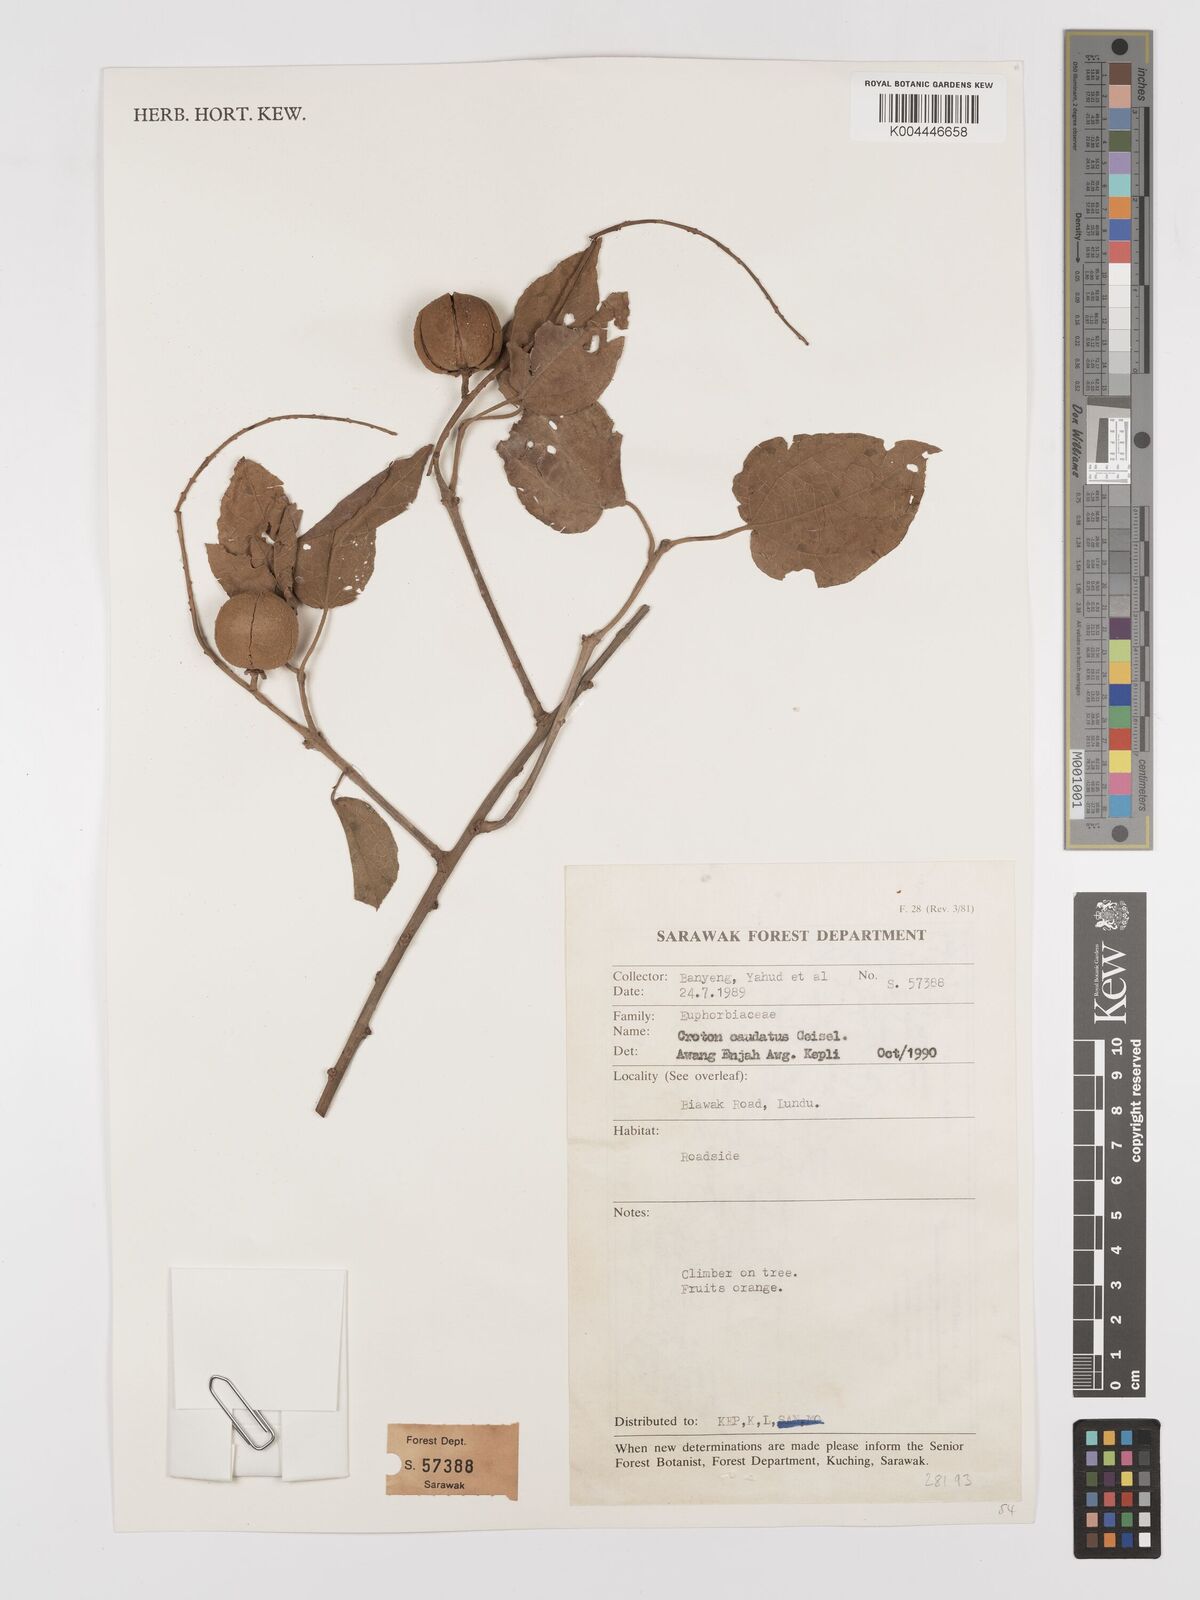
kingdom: Plantae
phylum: Tracheophyta
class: Magnoliopsida
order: Malpighiales
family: Euphorbiaceae
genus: Croton
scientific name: Croton caudatus
